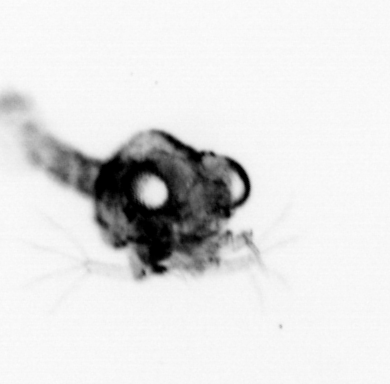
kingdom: Animalia
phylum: Arthropoda
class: Malacostraca
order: Decapoda
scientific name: Decapoda
